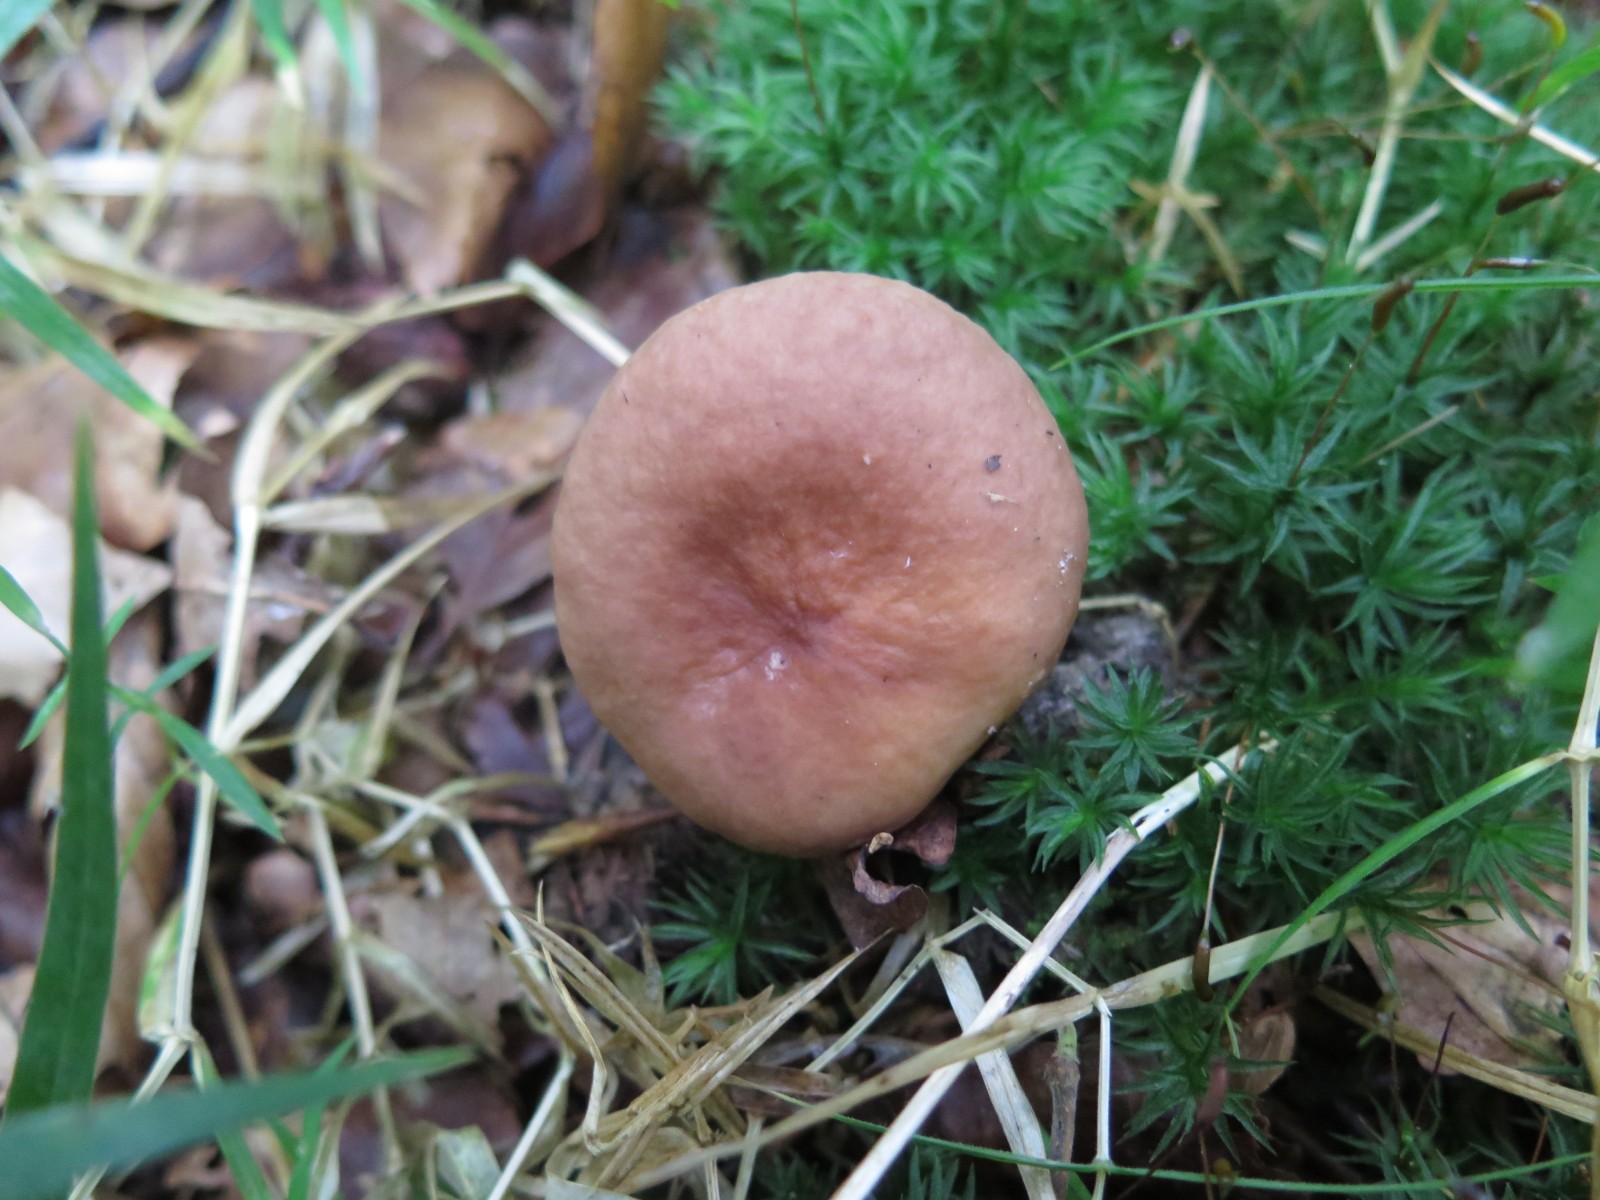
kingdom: Fungi
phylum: Basidiomycota
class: Agaricomycetes
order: Russulales
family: Russulaceae
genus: Lactarius
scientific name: Lactarius subdulcis
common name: sødlig mælkehat
